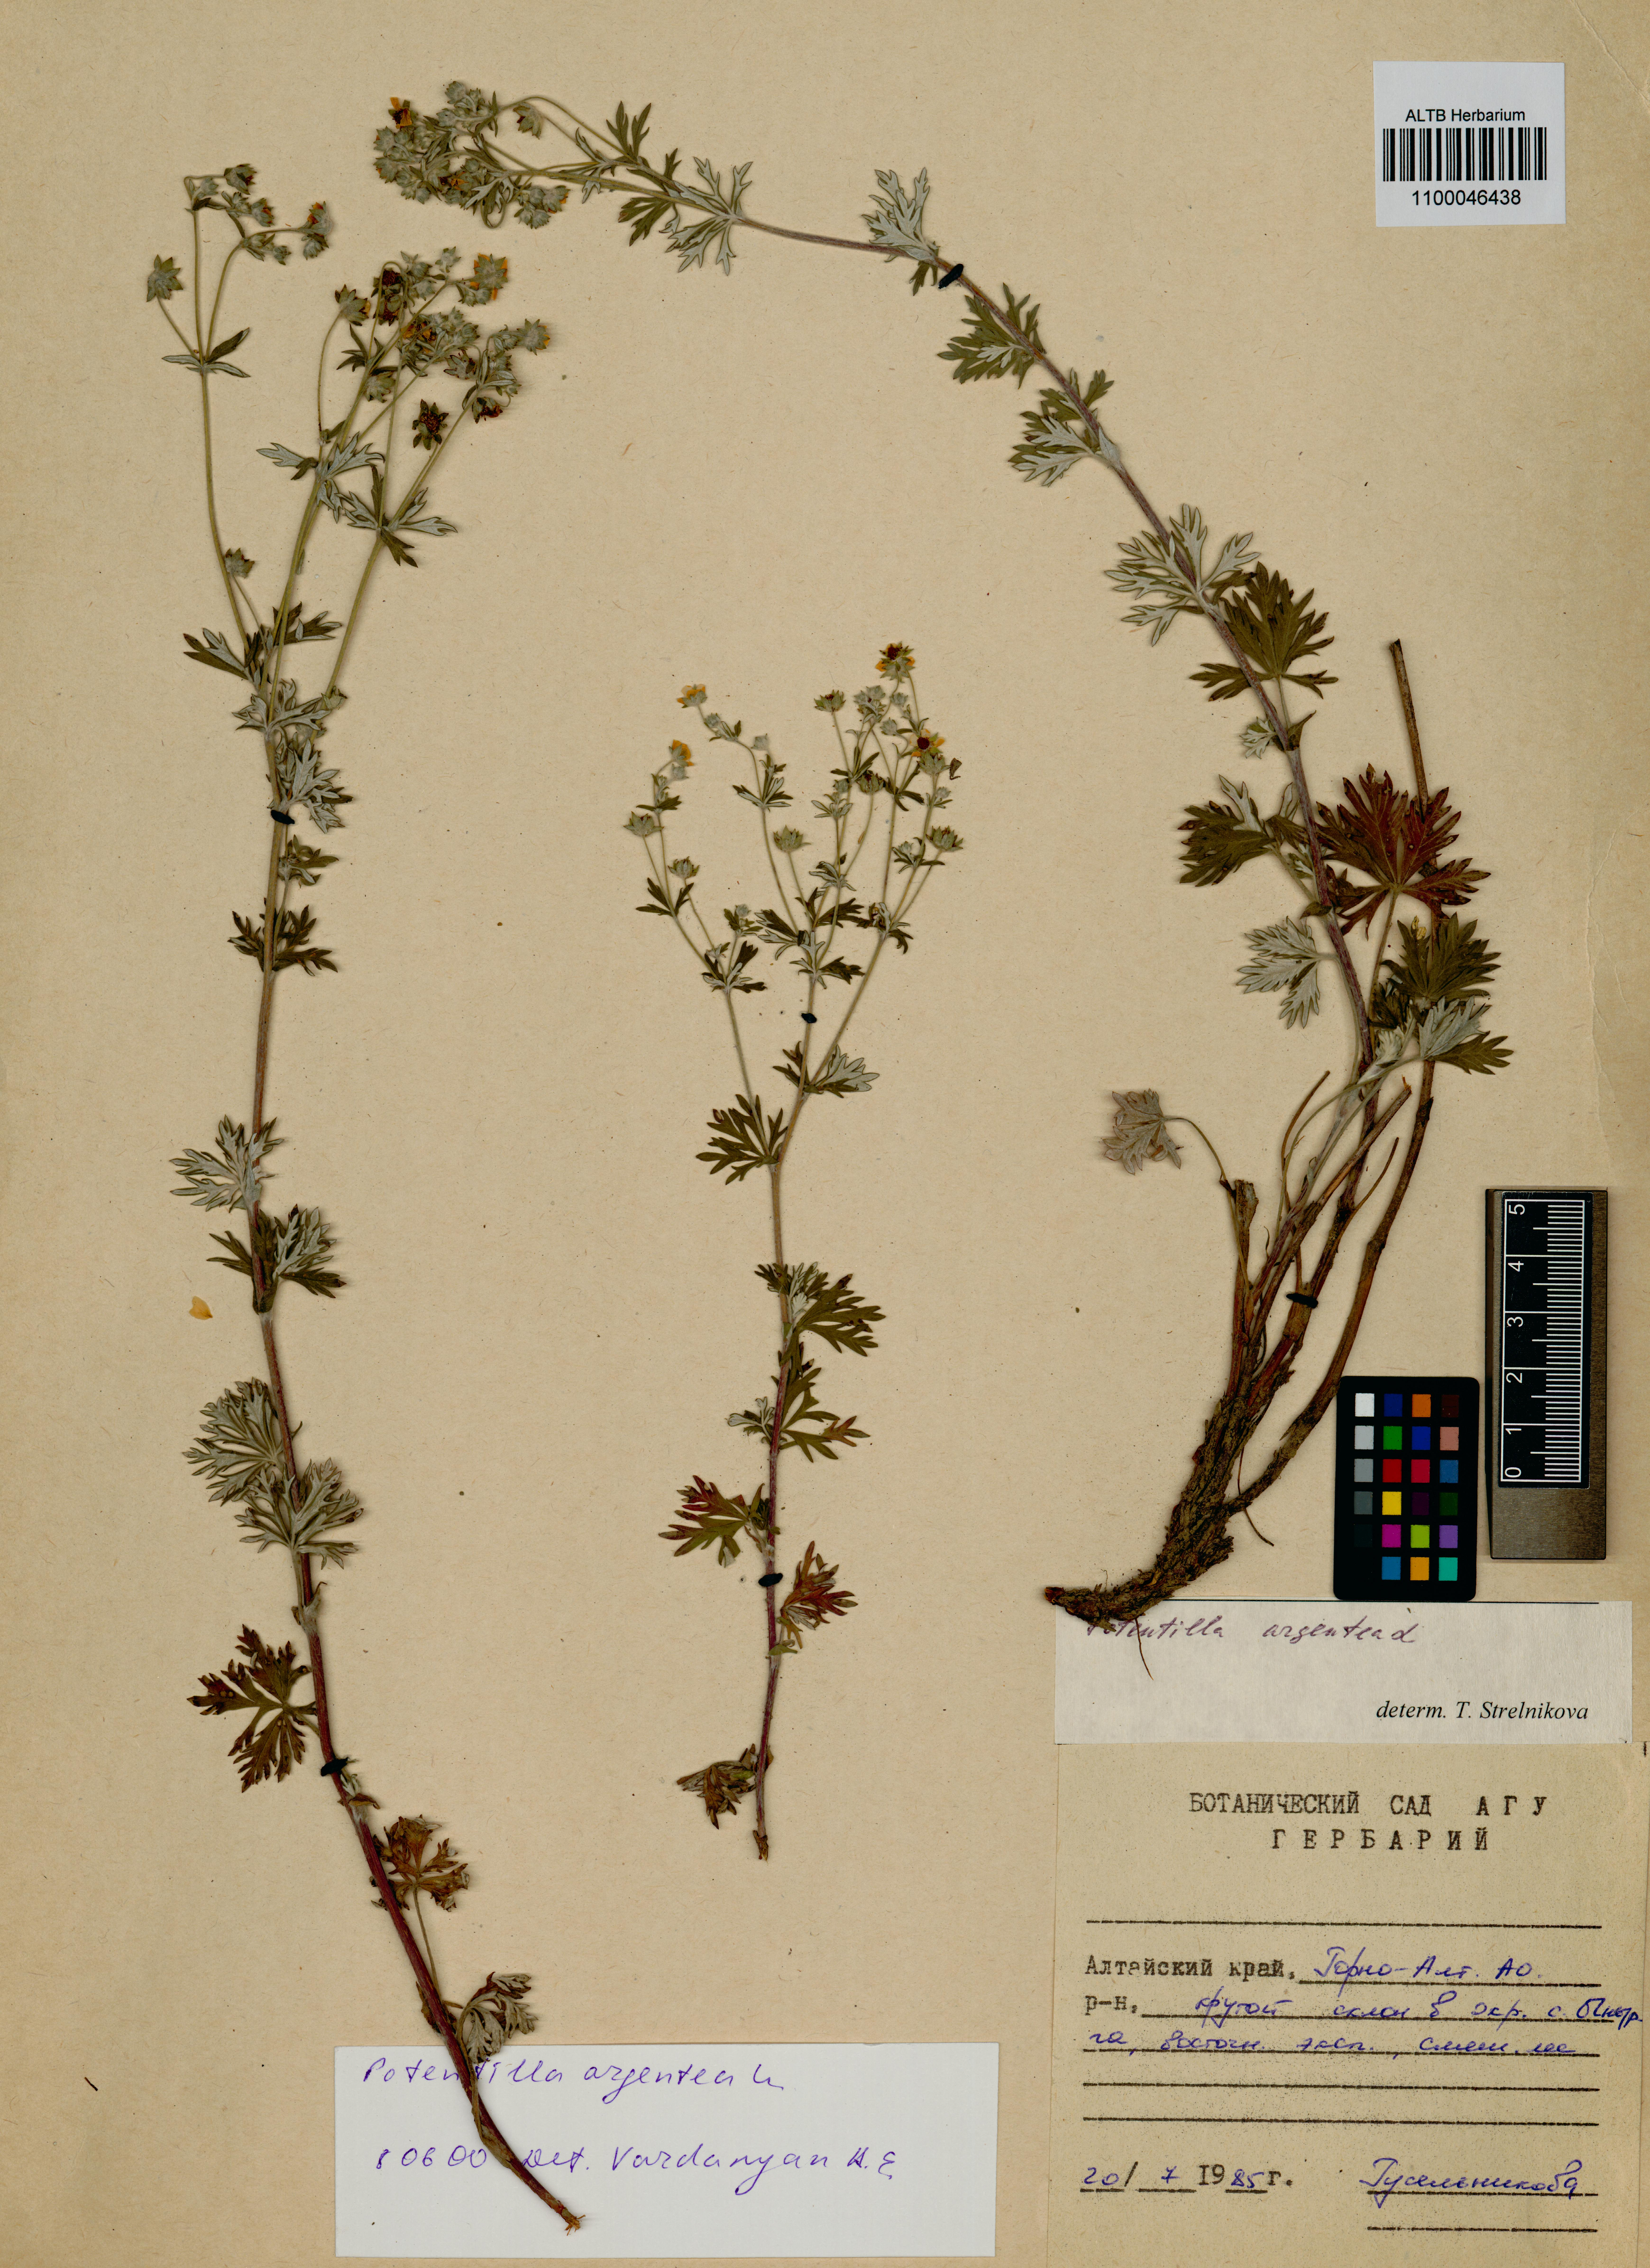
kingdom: Plantae
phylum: Tracheophyta
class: Magnoliopsida
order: Rosales
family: Rosaceae
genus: Potentilla
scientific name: Potentilla argentea
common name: Hoary cinquefoil
